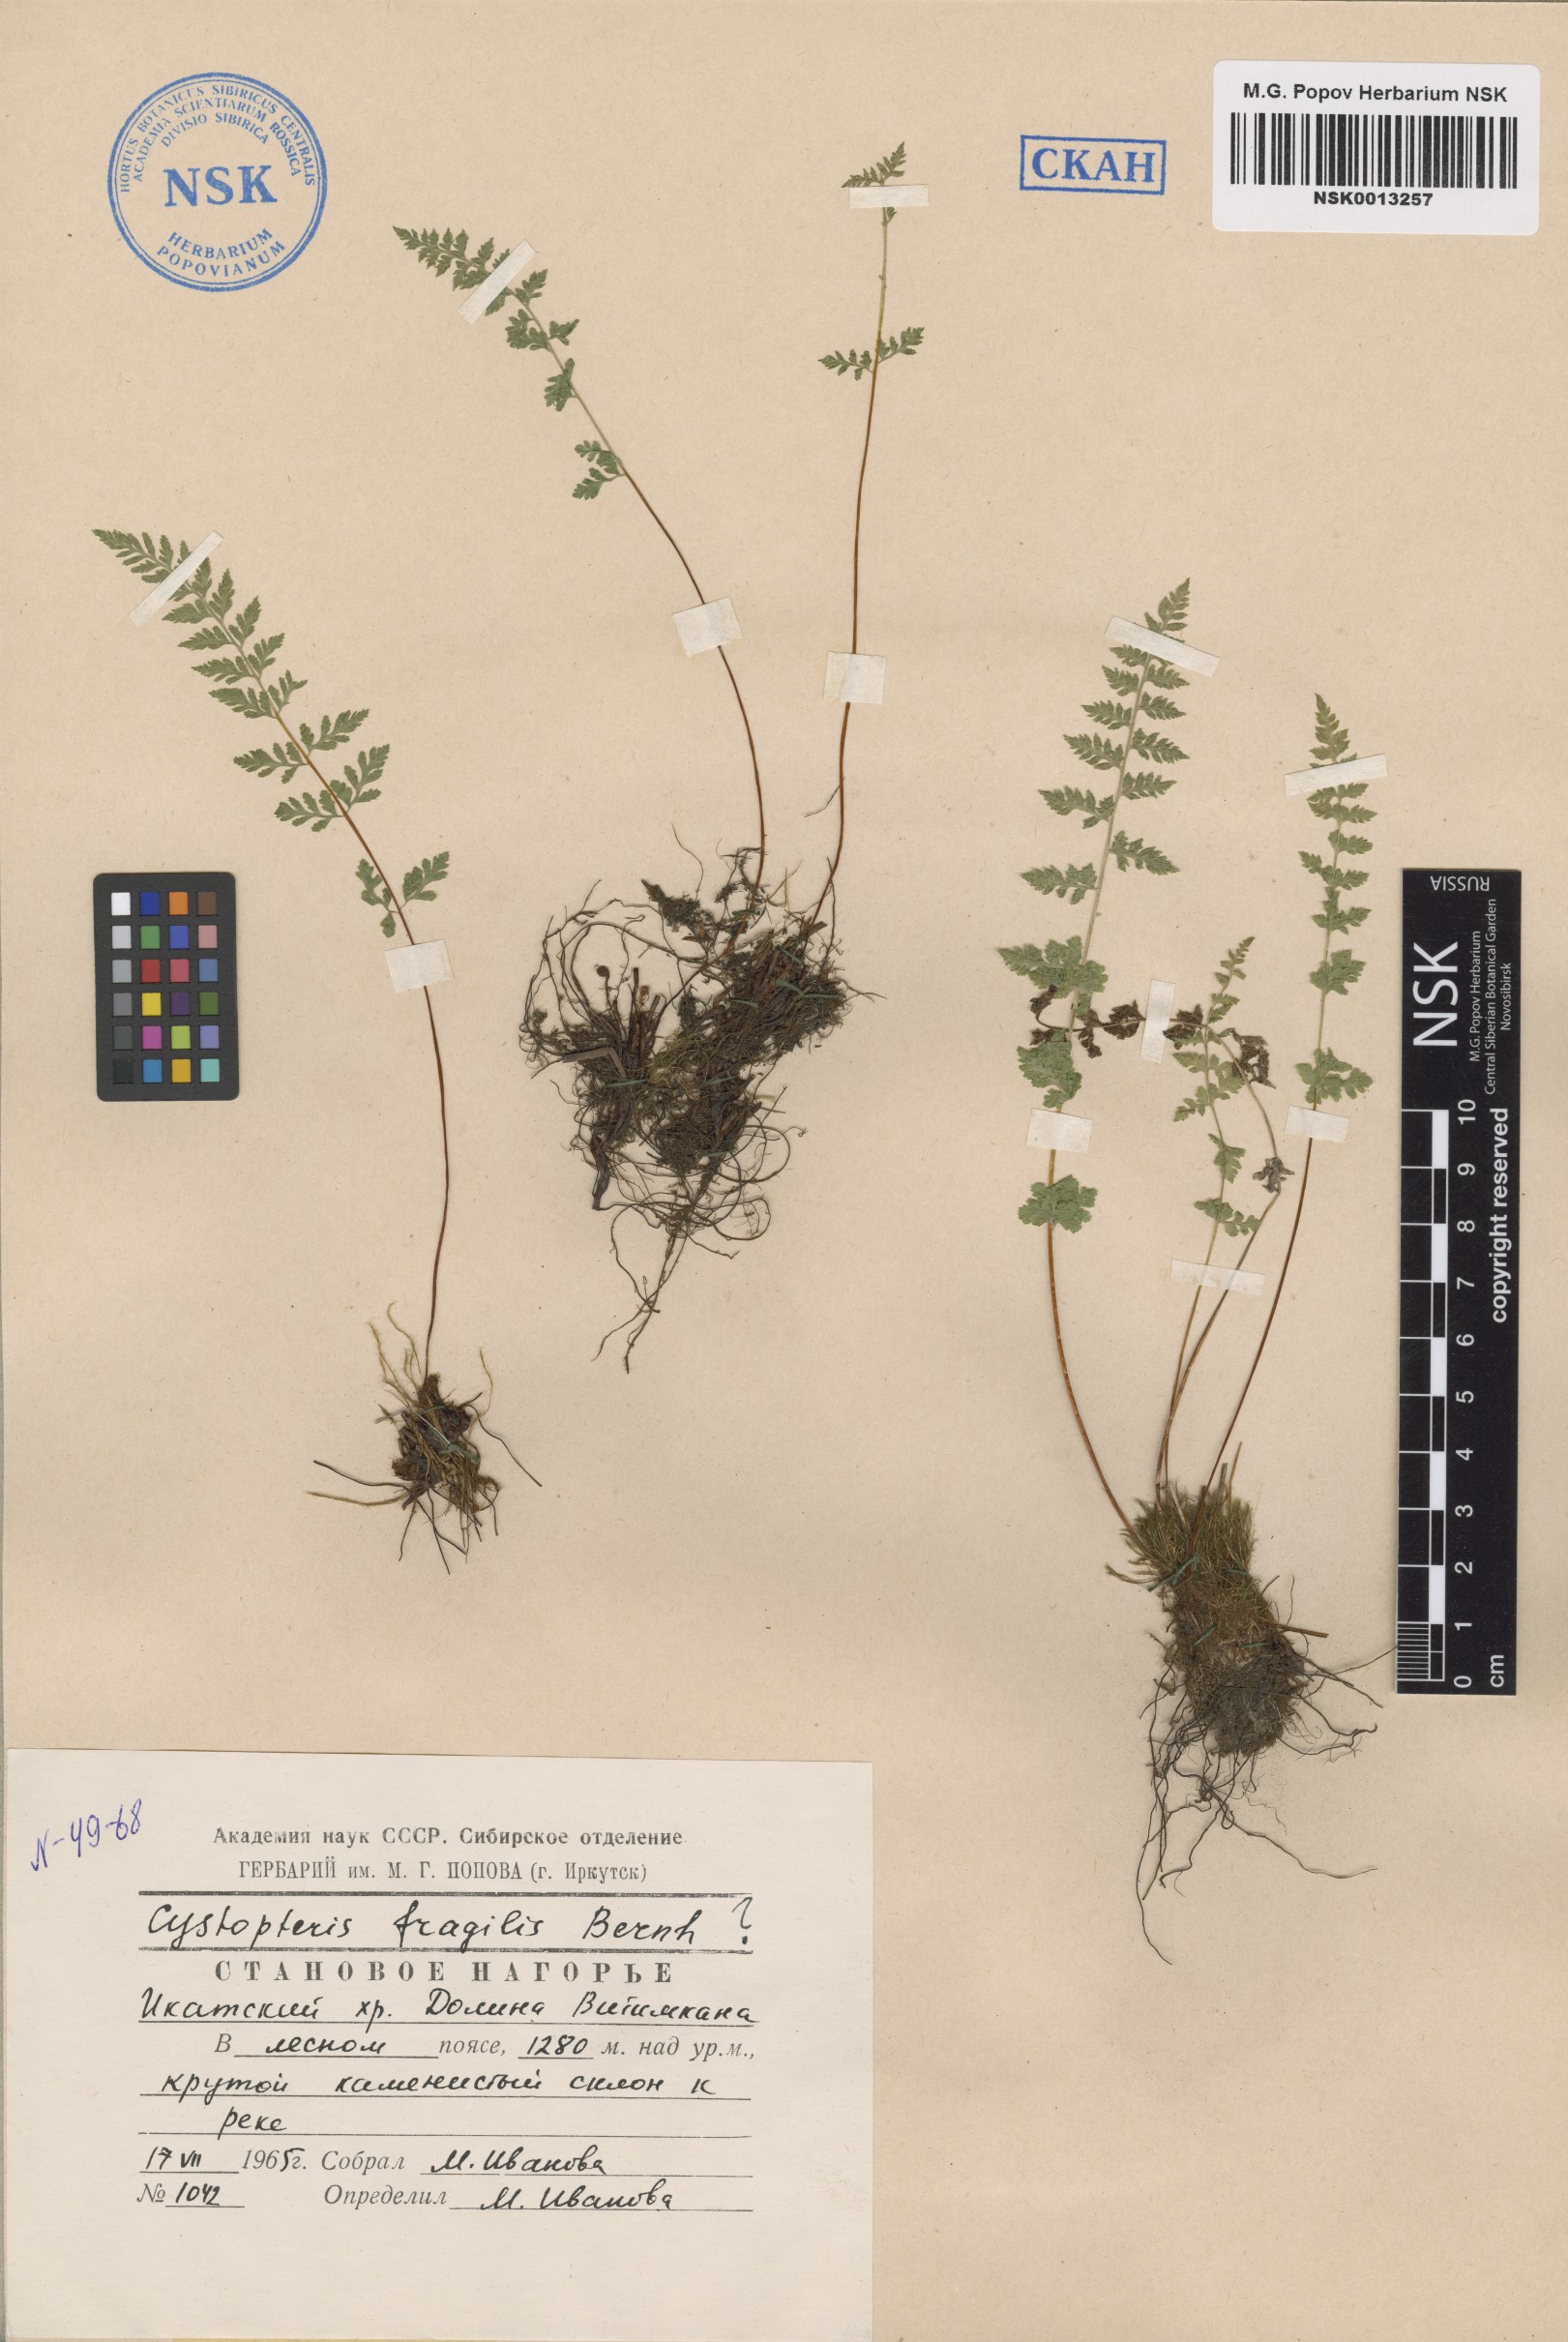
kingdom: Plantae
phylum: Tracheophyta
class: Polypodiopsida
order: Polypodiales
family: Cystopteridaceae
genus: Cystopteris
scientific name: Cystopteris fragilis
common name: Brittle bladder fern
